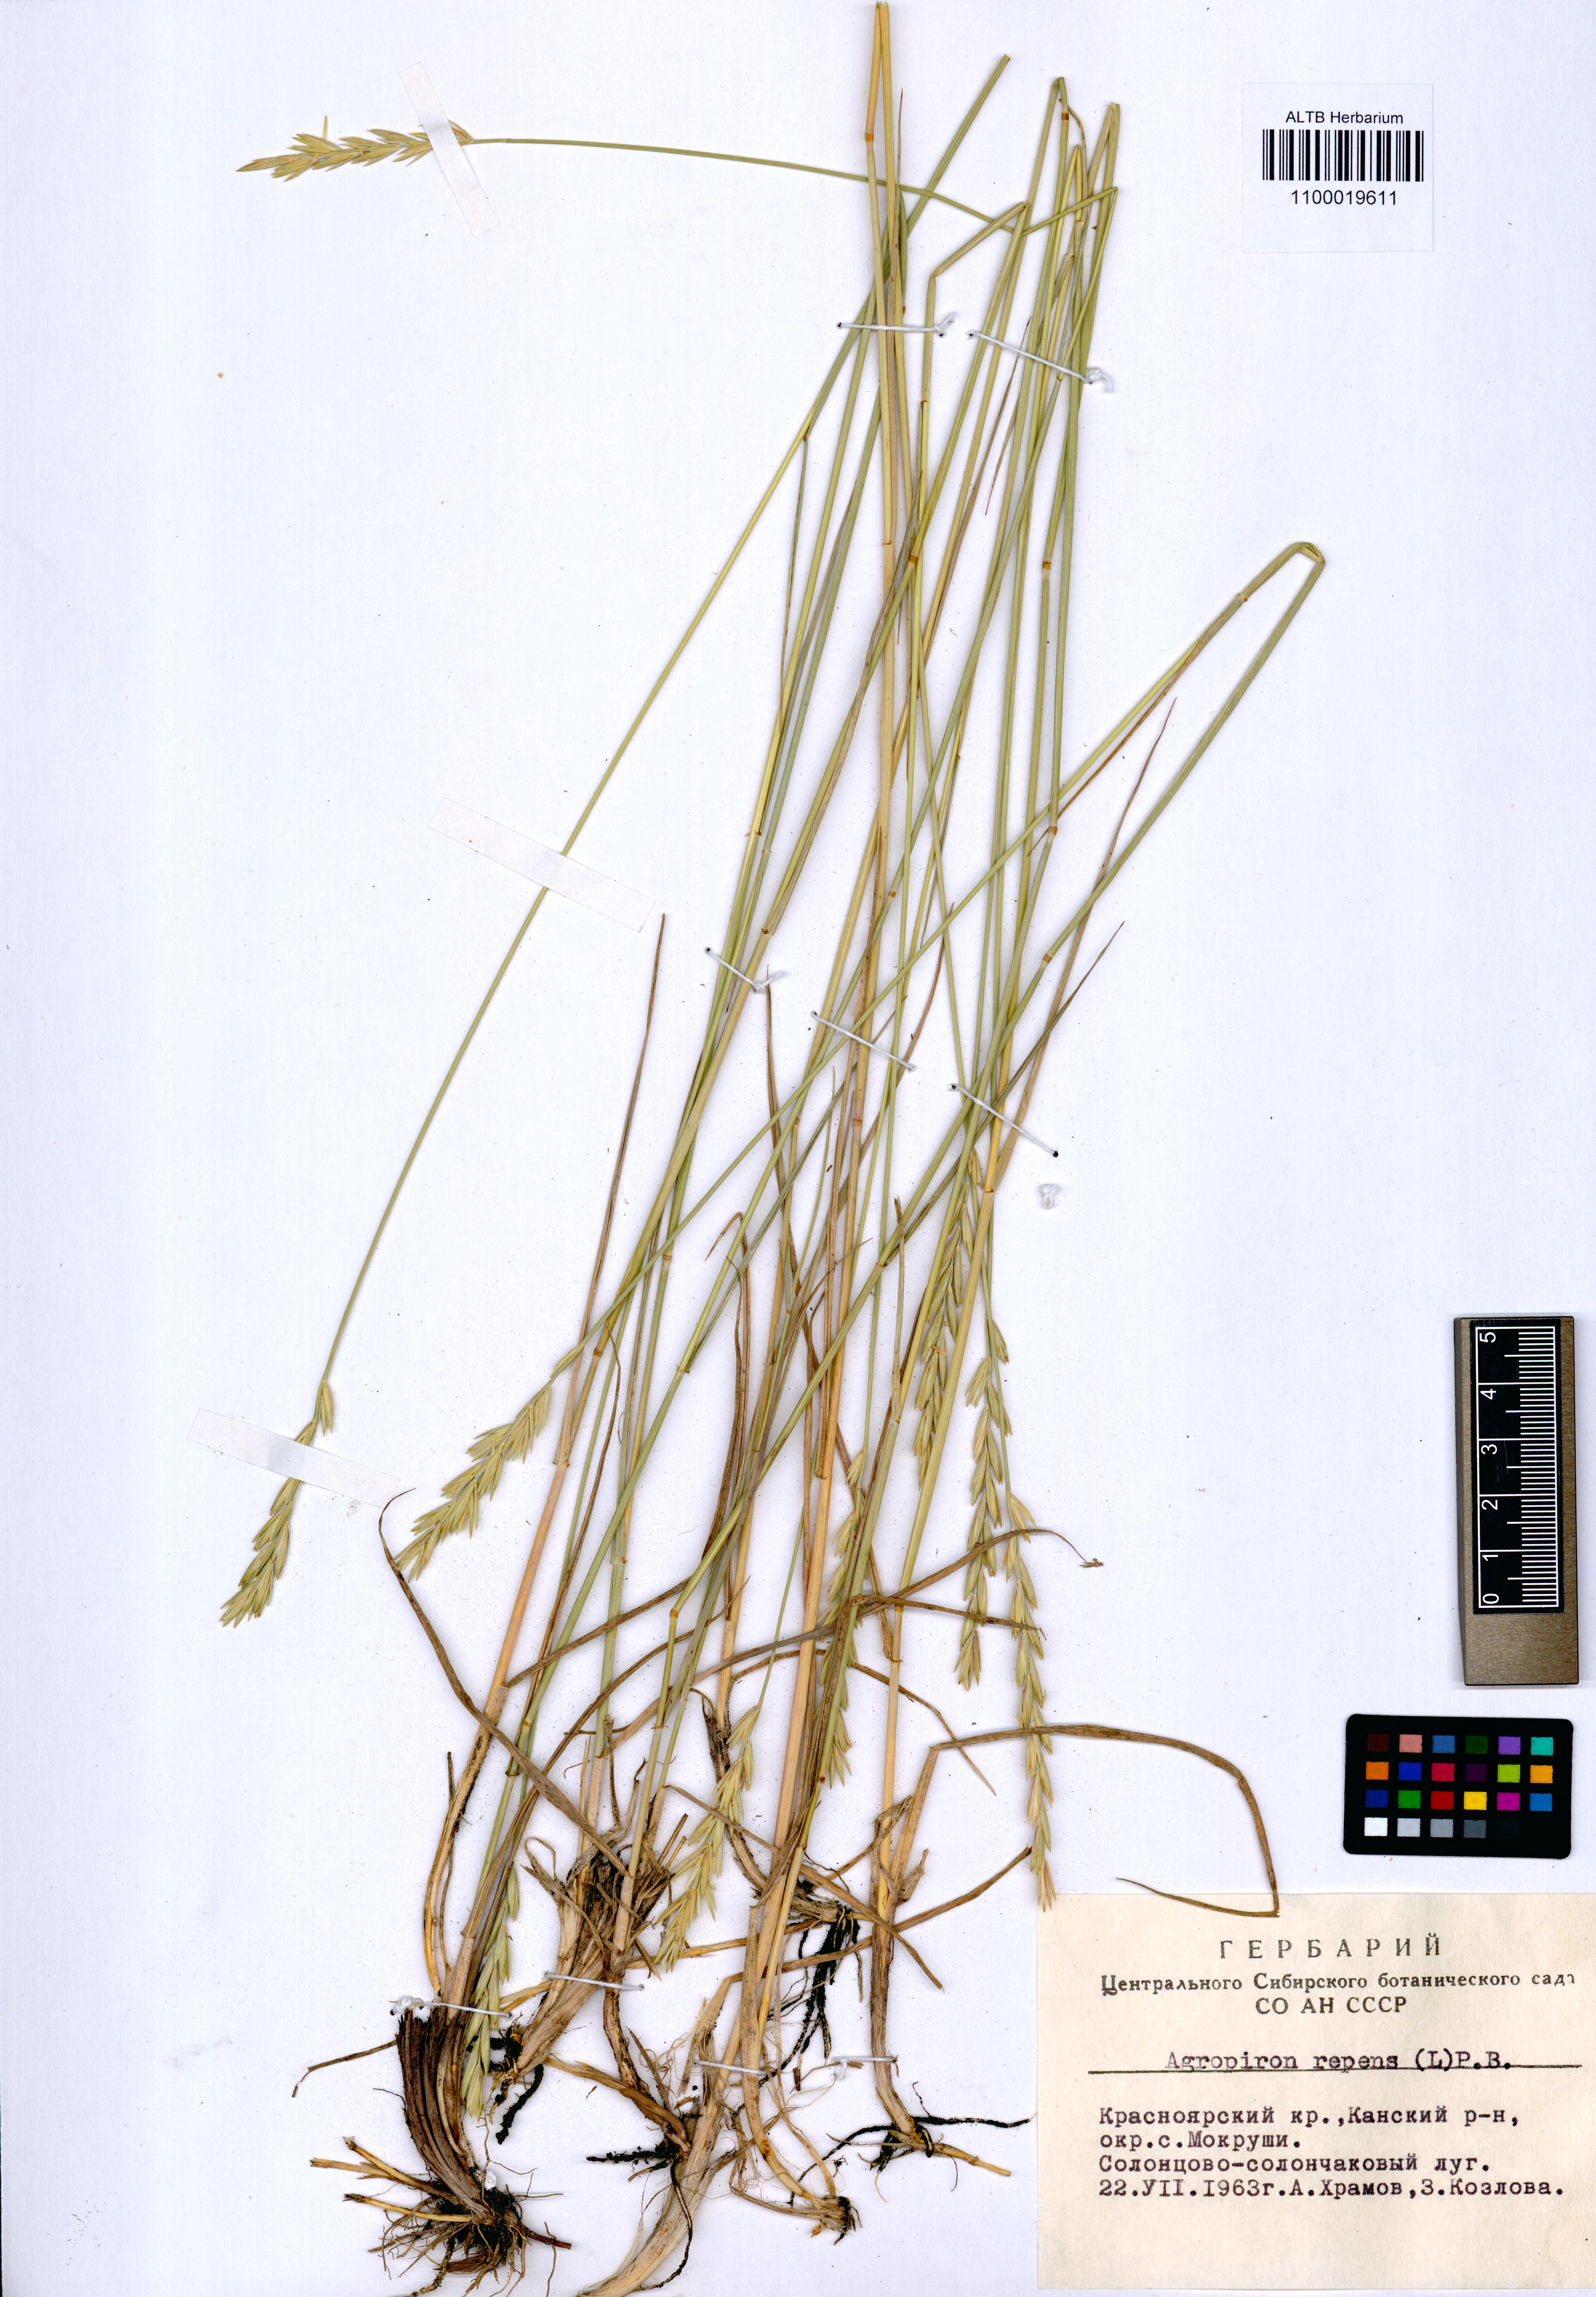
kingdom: Plantae
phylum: Tracheophyta
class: Liliopsida
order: Poales
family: Poaceae
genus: Elymus
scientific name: Elymus repens
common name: Quackgrass
